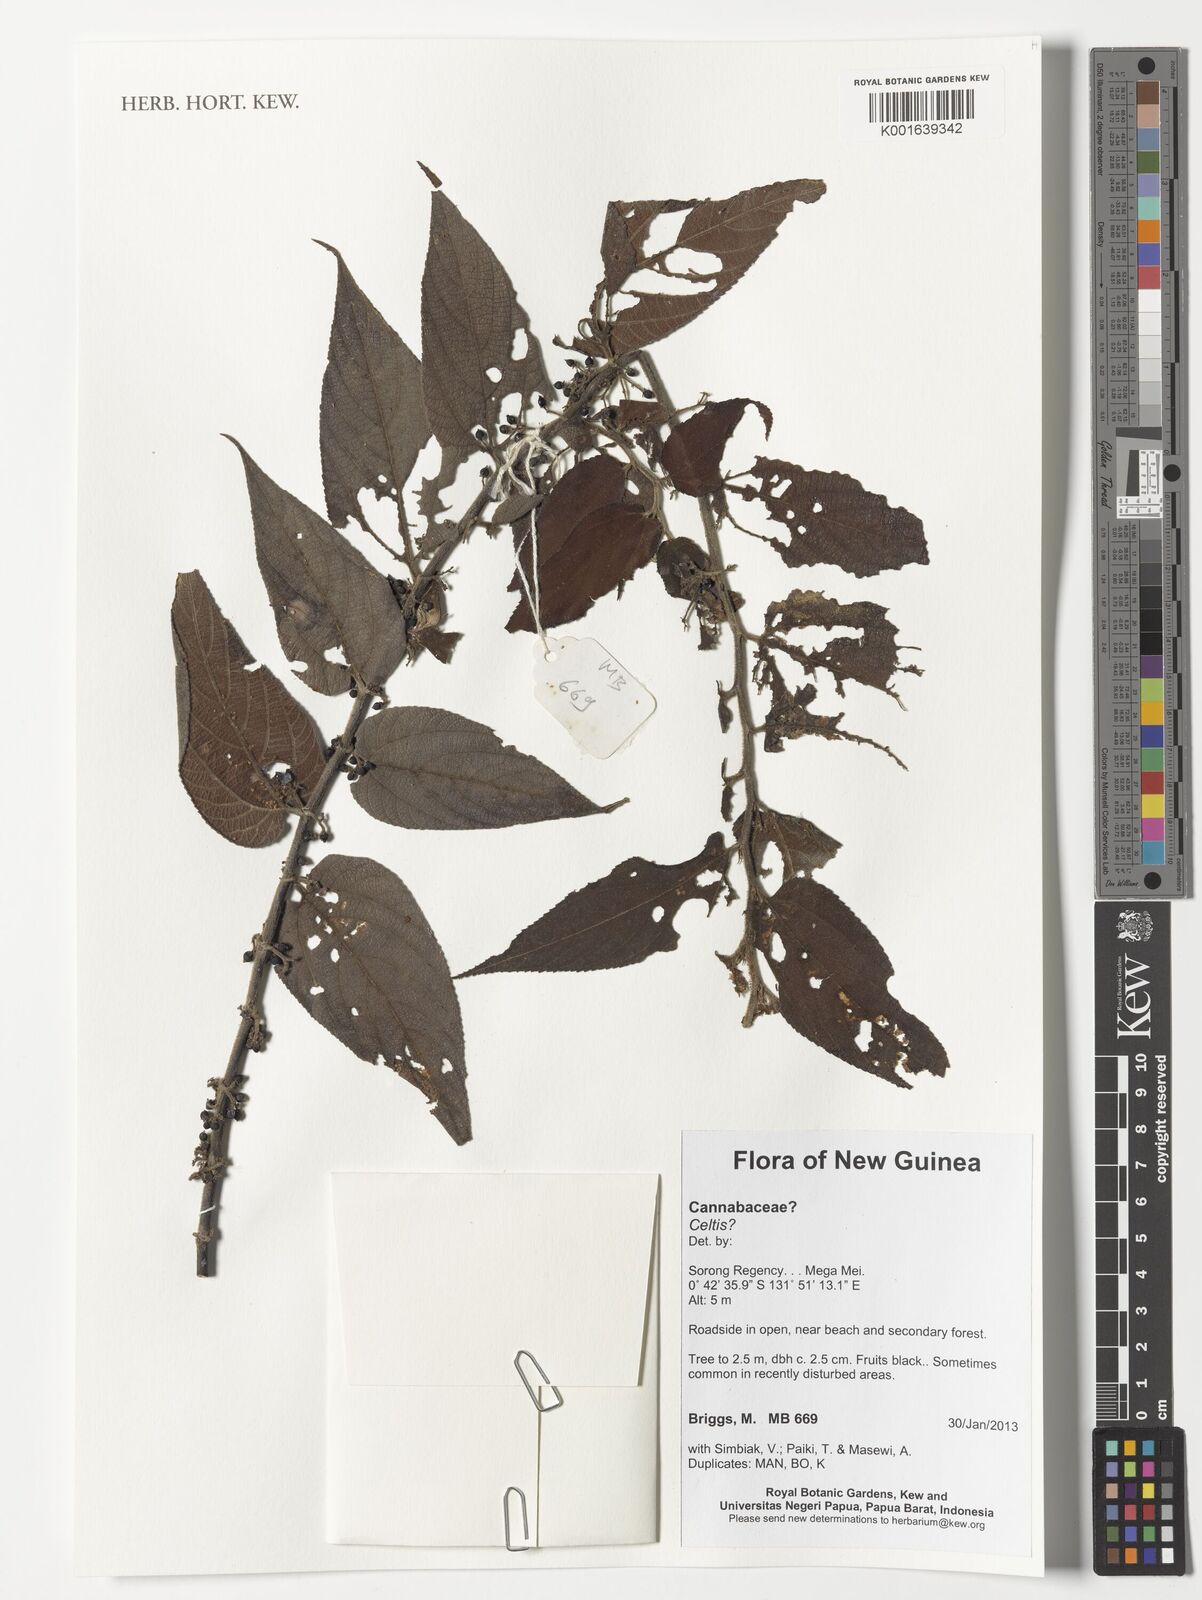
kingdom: Plantae
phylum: Tracheophyta
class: Magnoliopsida
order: Rosales
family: Cannabaceae
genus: Celtis
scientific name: Celtis
